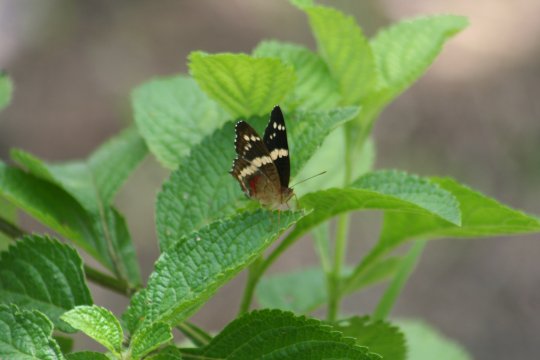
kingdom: Animalia
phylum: Arthropoda
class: Insecta
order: Lepidoptera
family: Nymphalidae
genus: Anartia
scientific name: Anartia fatima
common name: Banded Peacock
